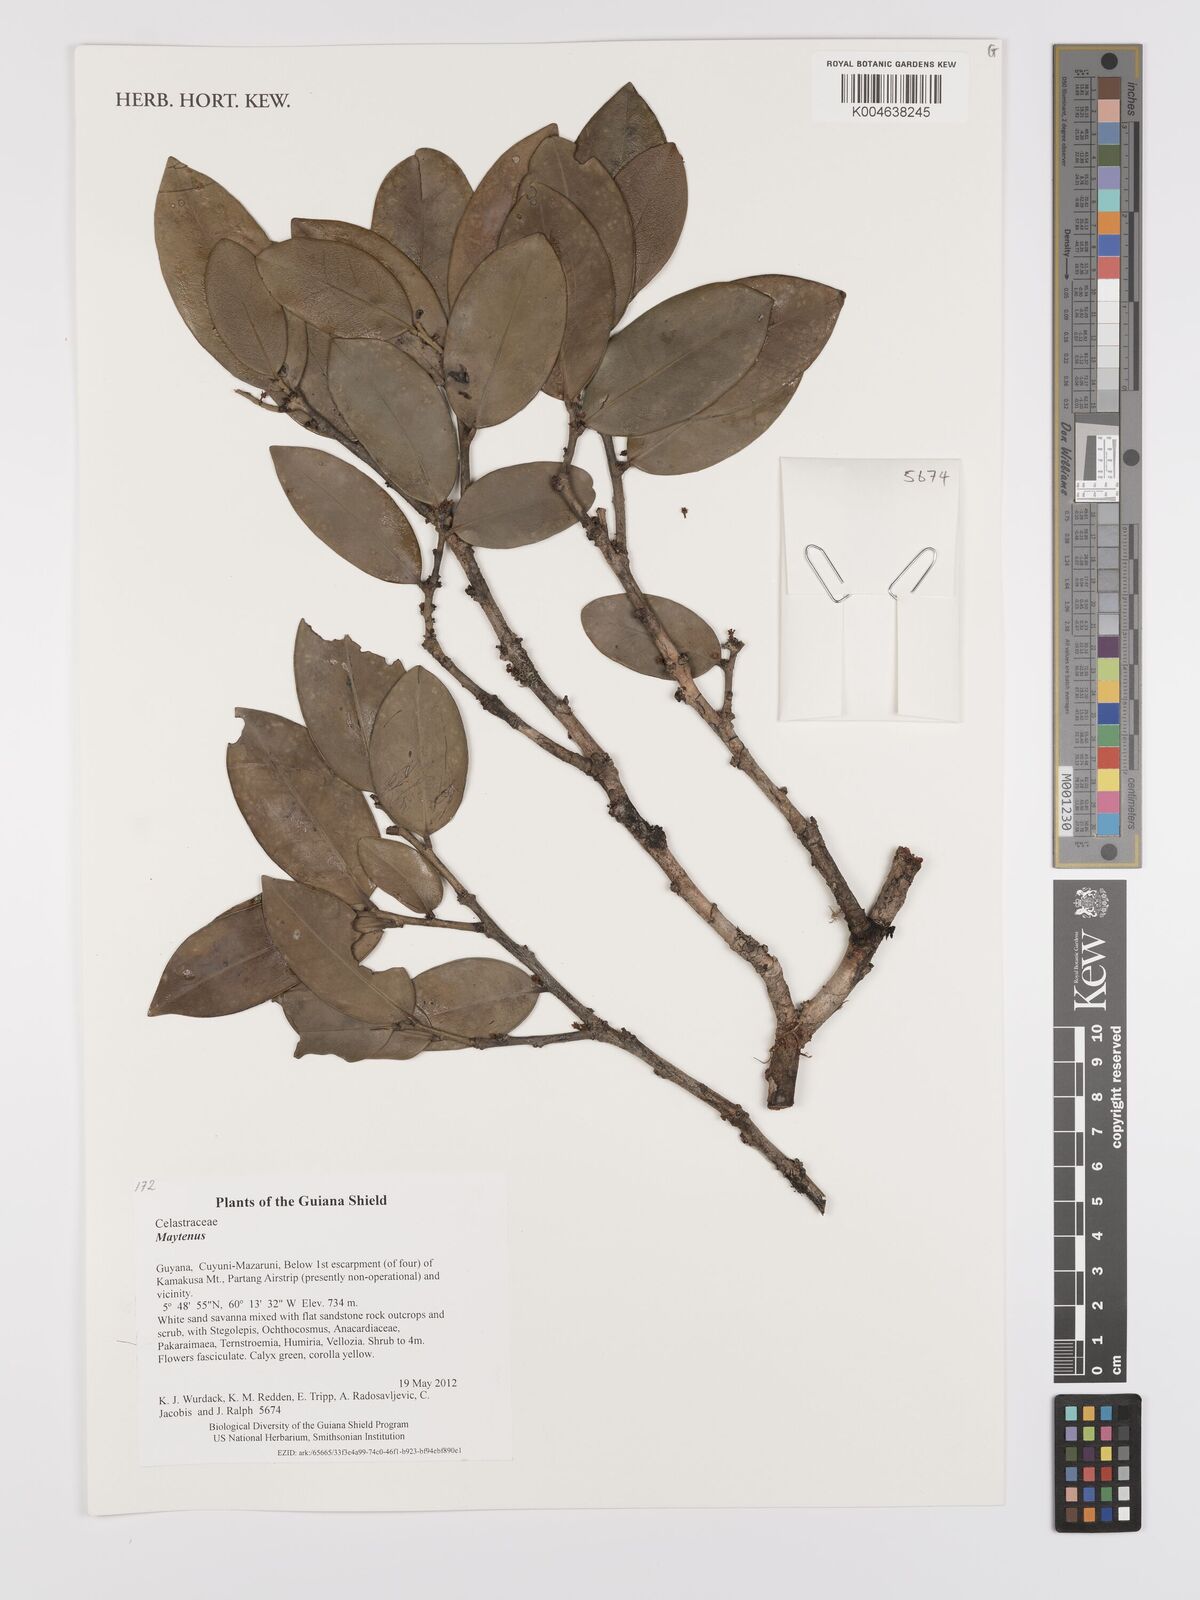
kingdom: Plantae
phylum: Tracheophyta
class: Magnoliopsida
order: Celastrales
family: Celastraceae
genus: Maytenus
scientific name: Maytenus
